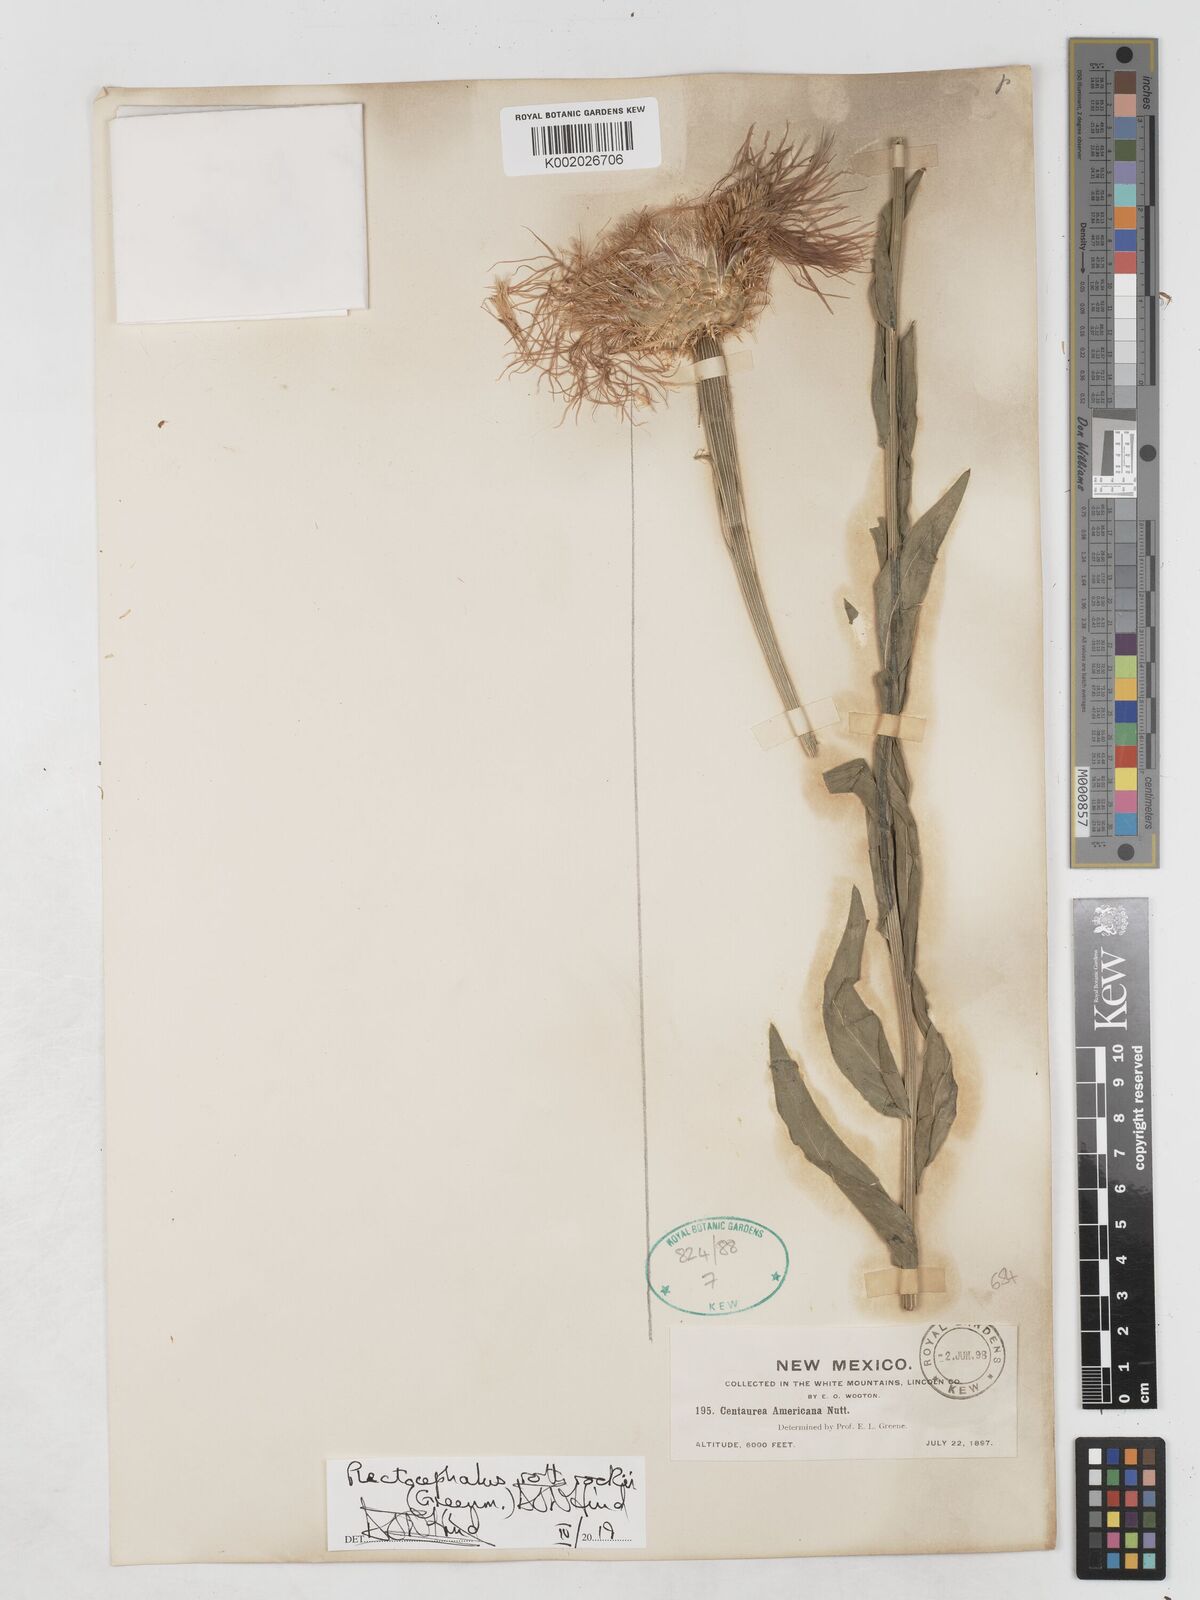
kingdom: Plantae
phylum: Tracheophyta
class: Magnoliopsida
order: Asterales
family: Asteraceae
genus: Plectocephalus
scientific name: Plectocephalus rothrockii
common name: Mexican basketflower
